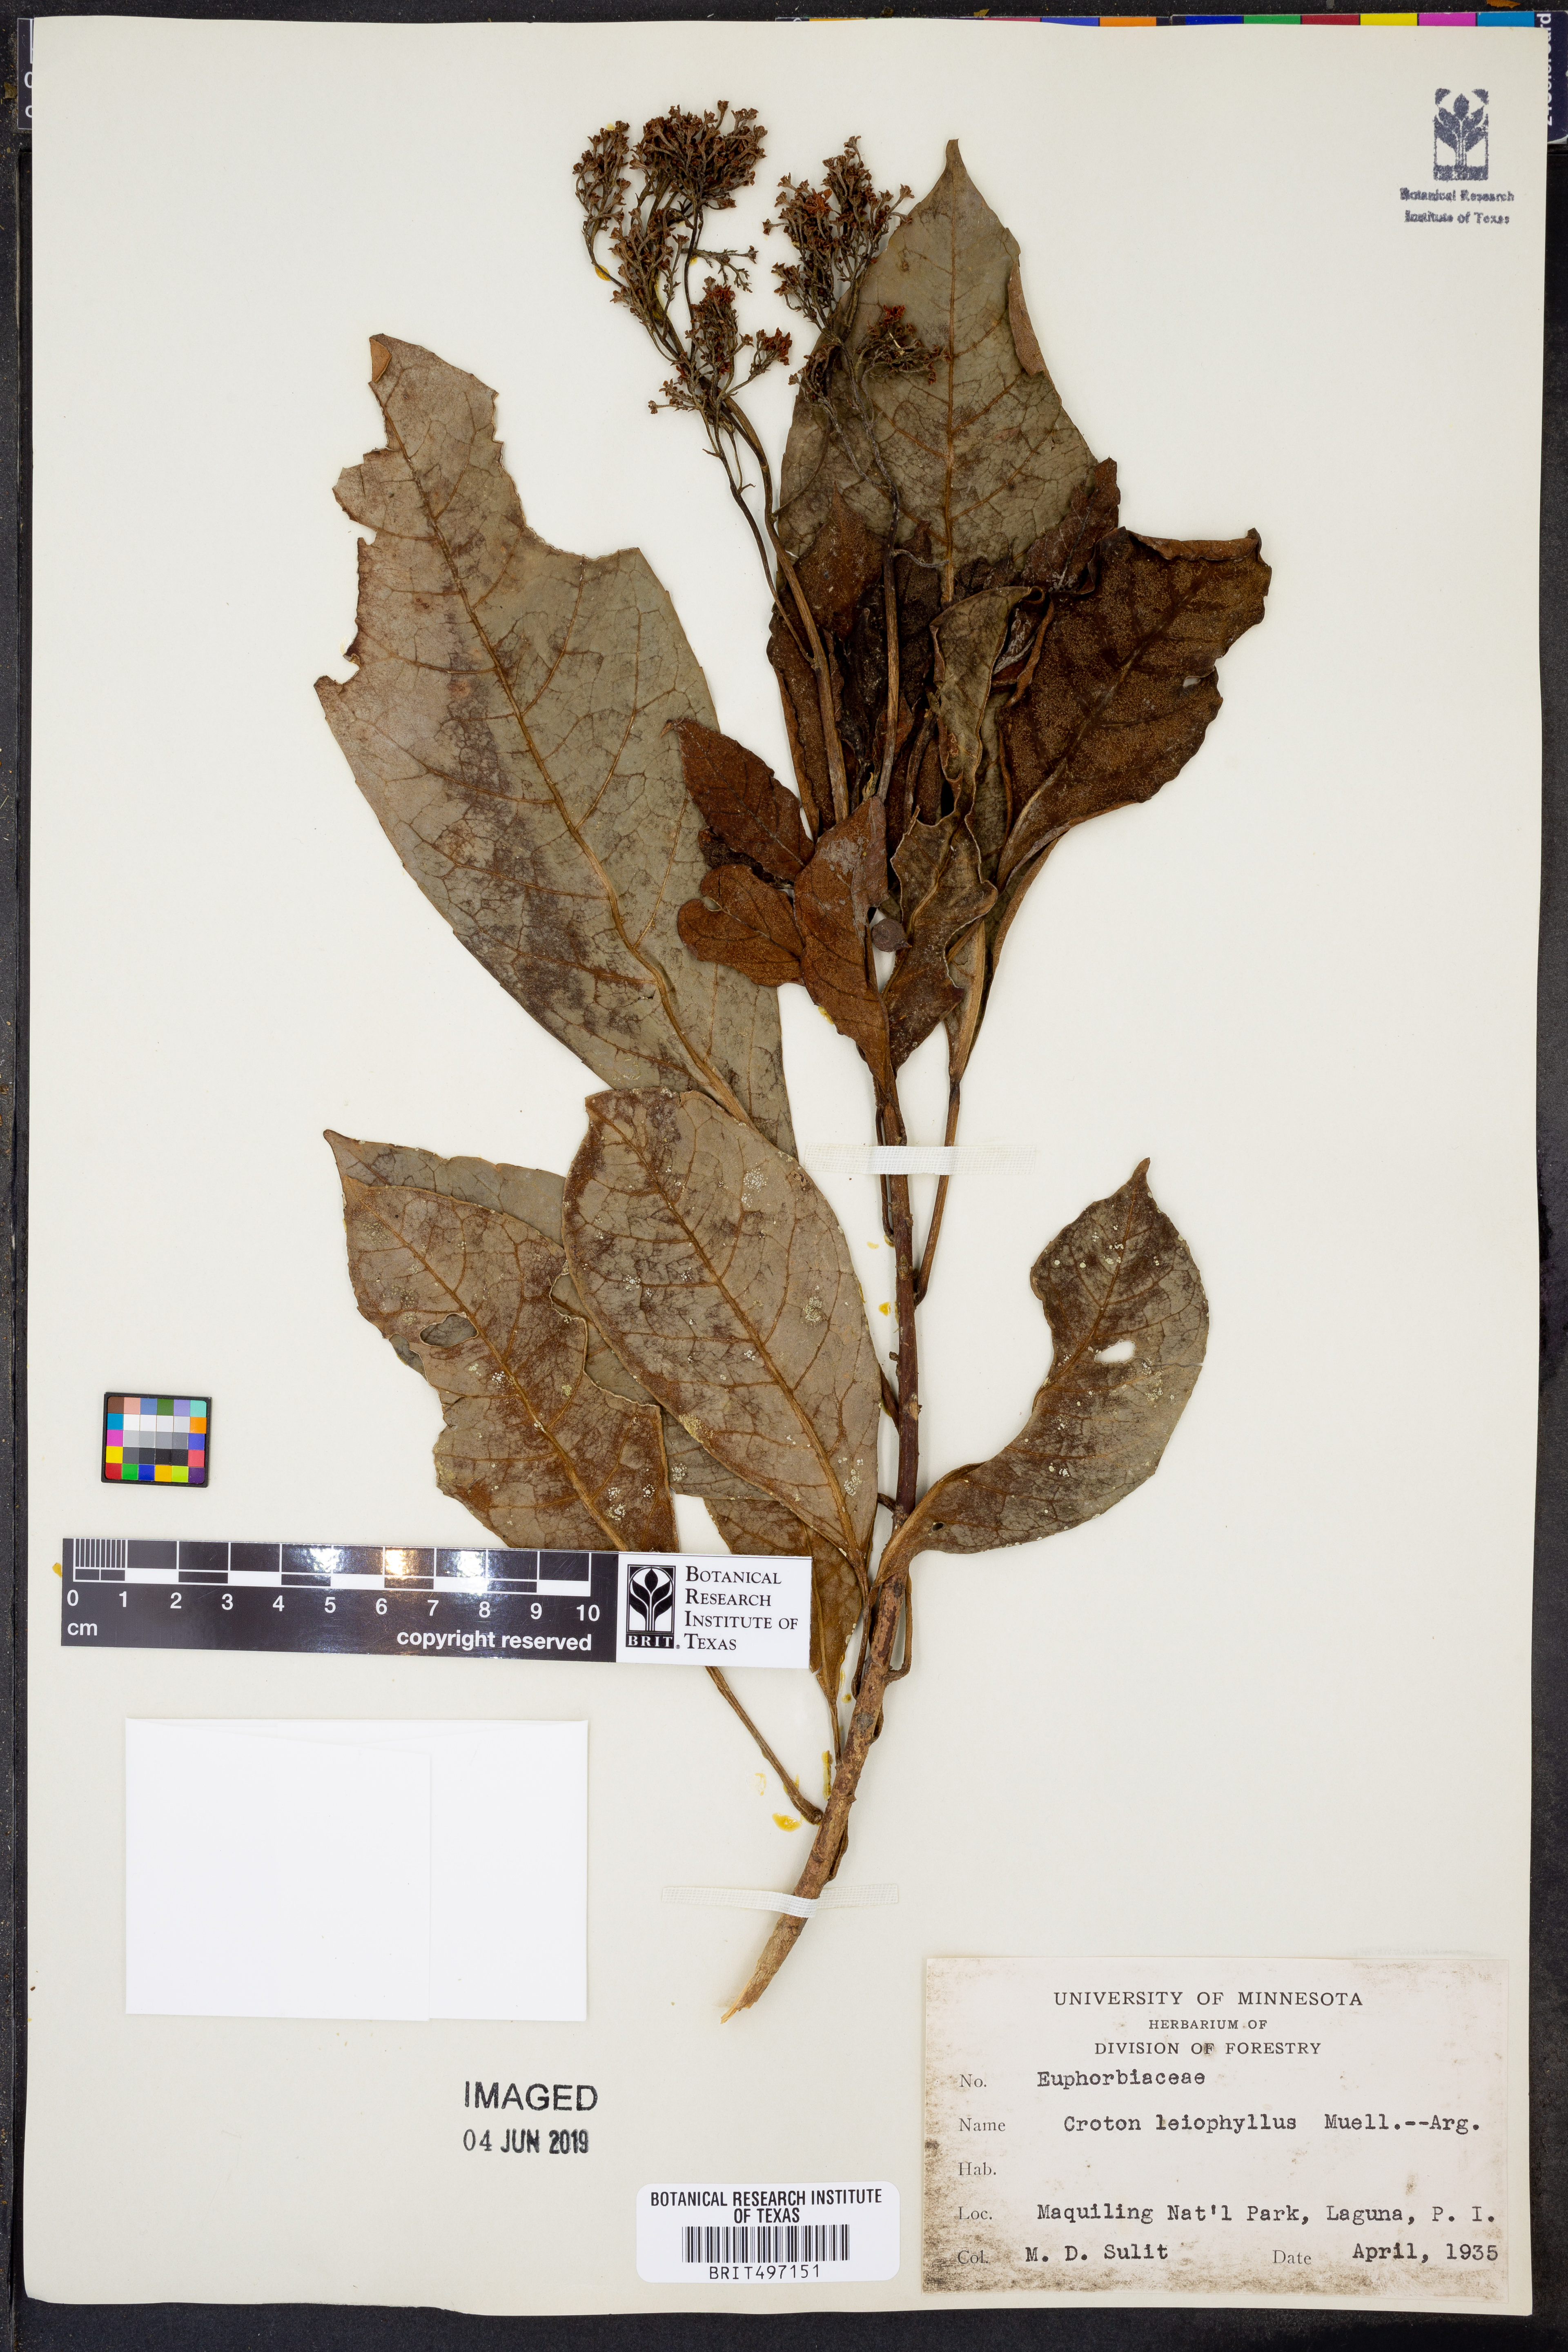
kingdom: Plantae
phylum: Tracheophyta
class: Magnoliopsida
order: Malpighiales
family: Euphorbiaceae
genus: Croton
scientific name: Croton leiophyllus
